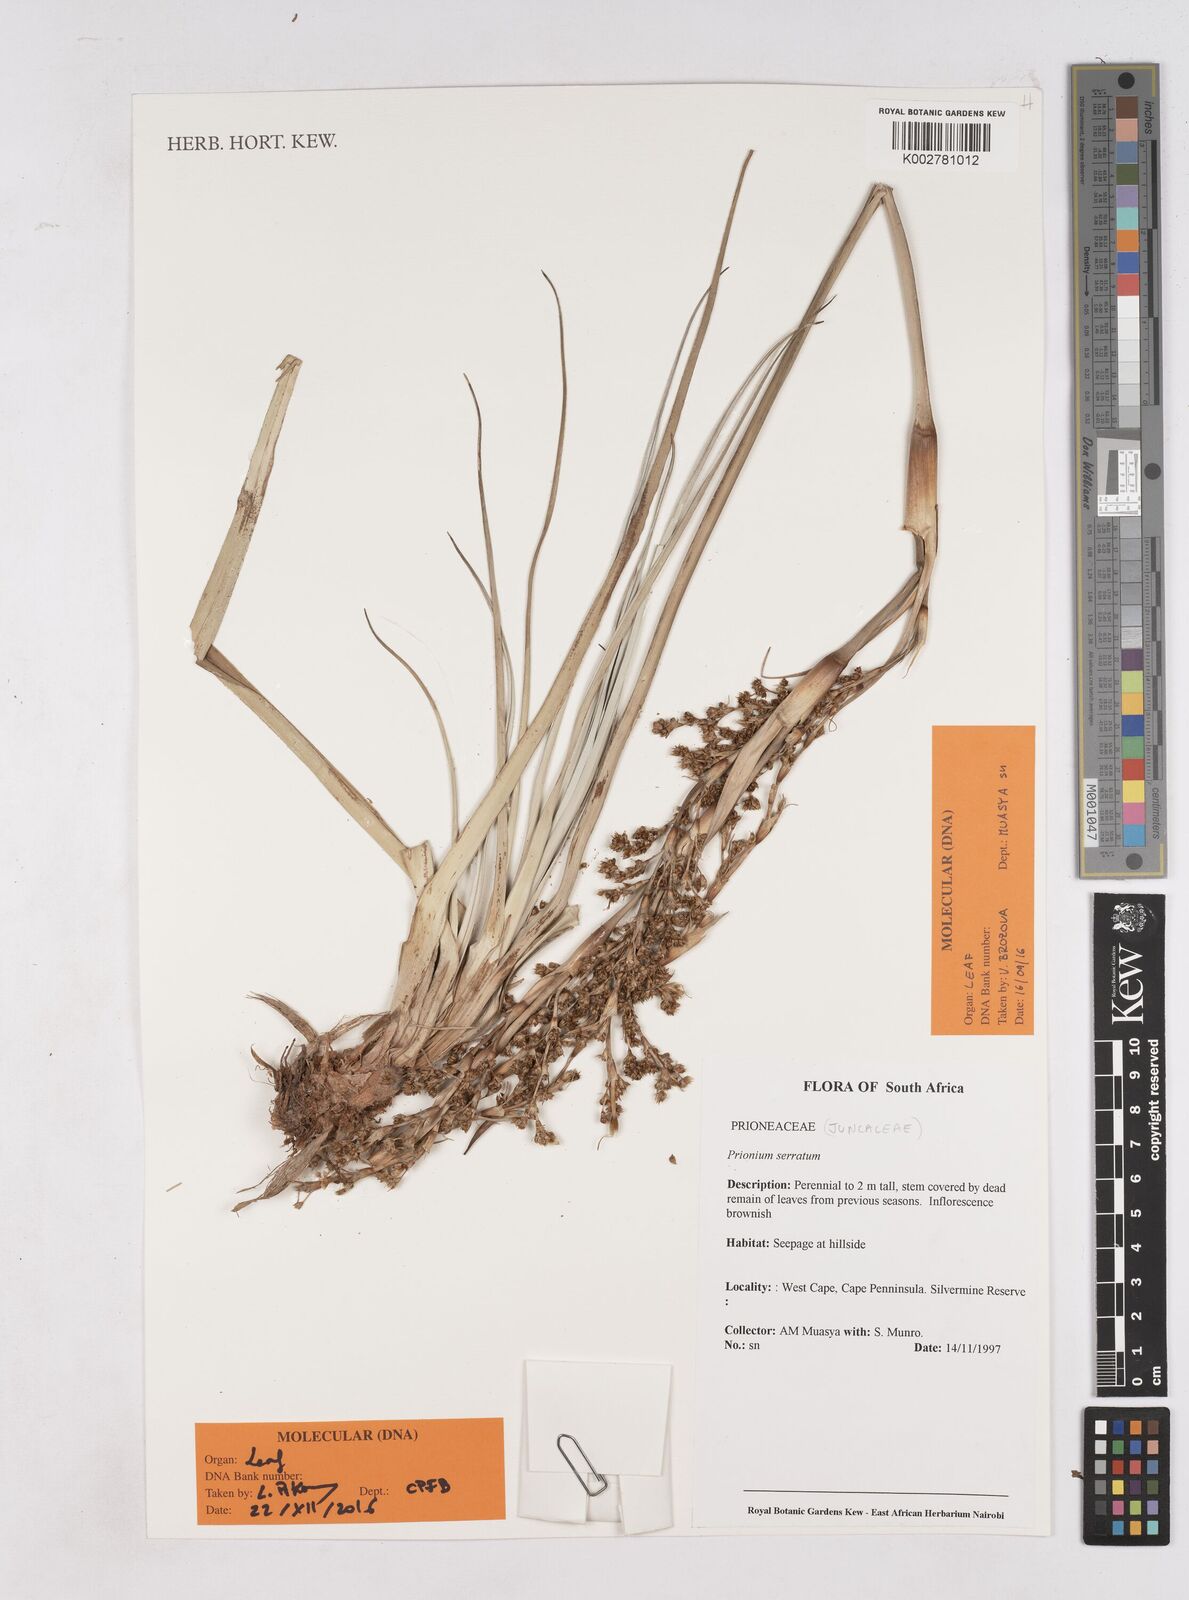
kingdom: Plantae
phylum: Tracheophyta
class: Liliopsida
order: Poales
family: Thurniaceae
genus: Prionium
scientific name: Prionium serratum
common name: Palmiet
